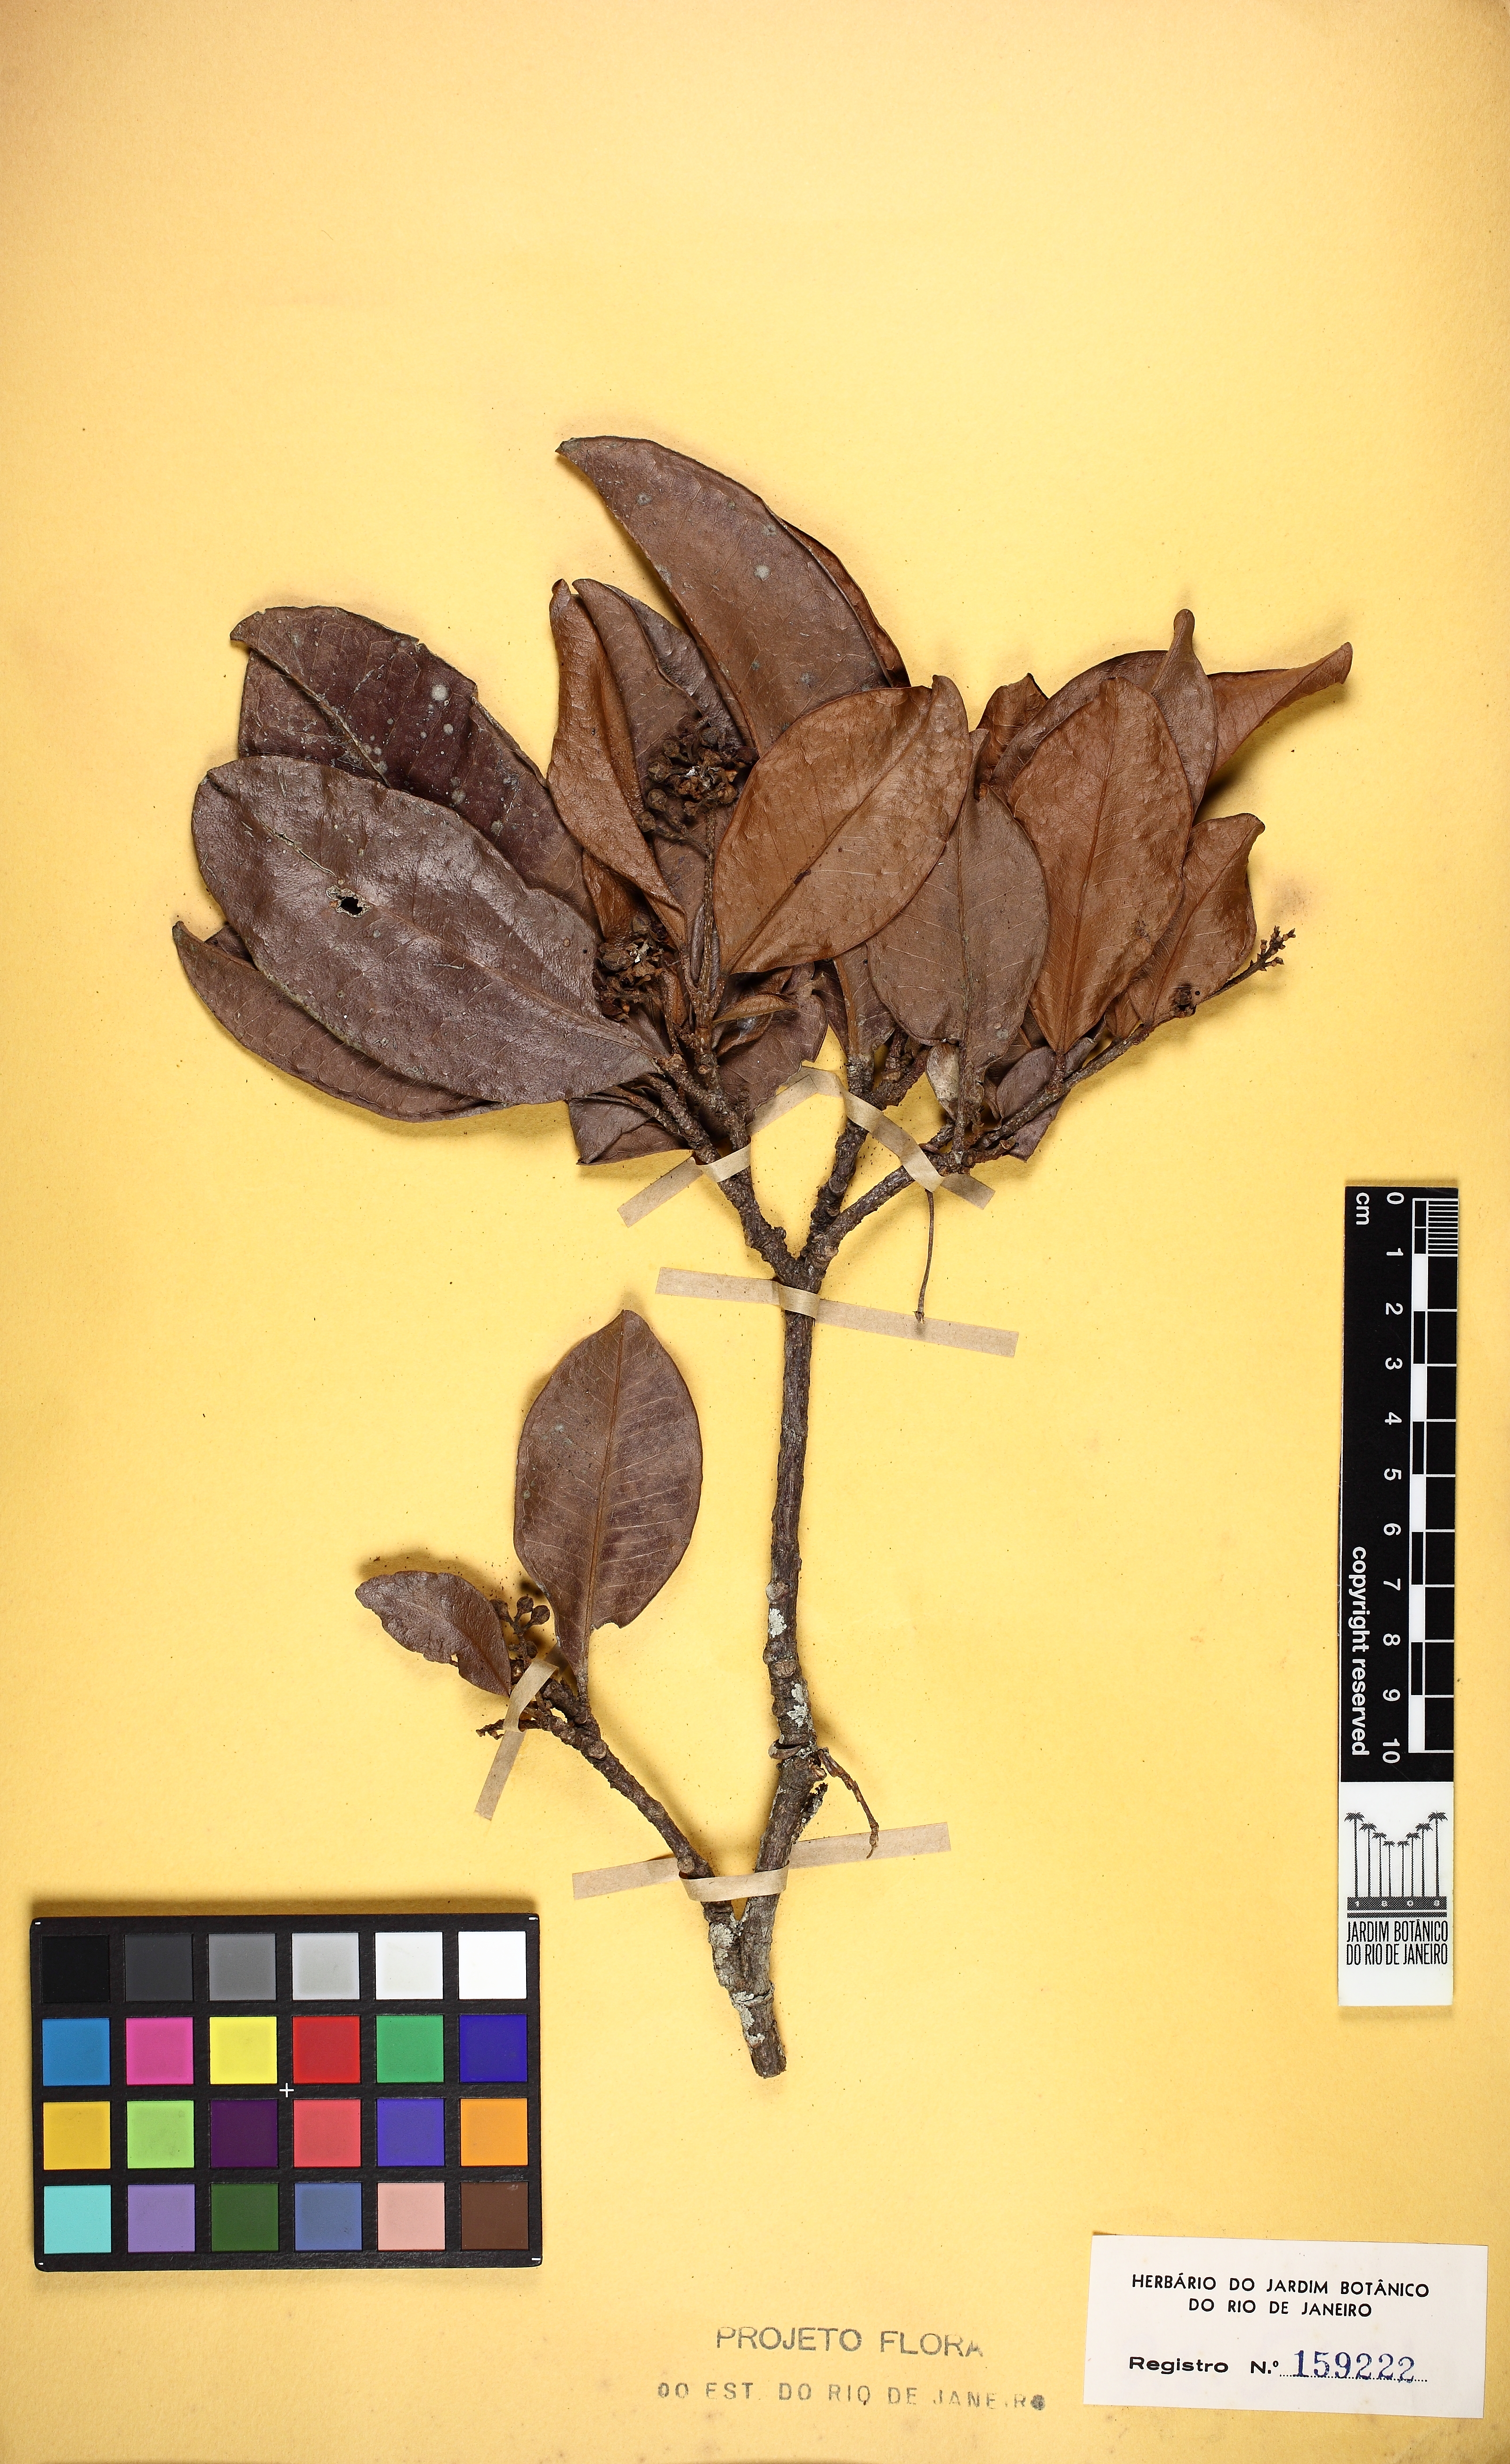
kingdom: Plantae
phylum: Tracheophyta
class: Magnoliopsida
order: Sapindales
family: Rutaceae
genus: Esenbeckia
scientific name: Esenbeckia grandiflora
